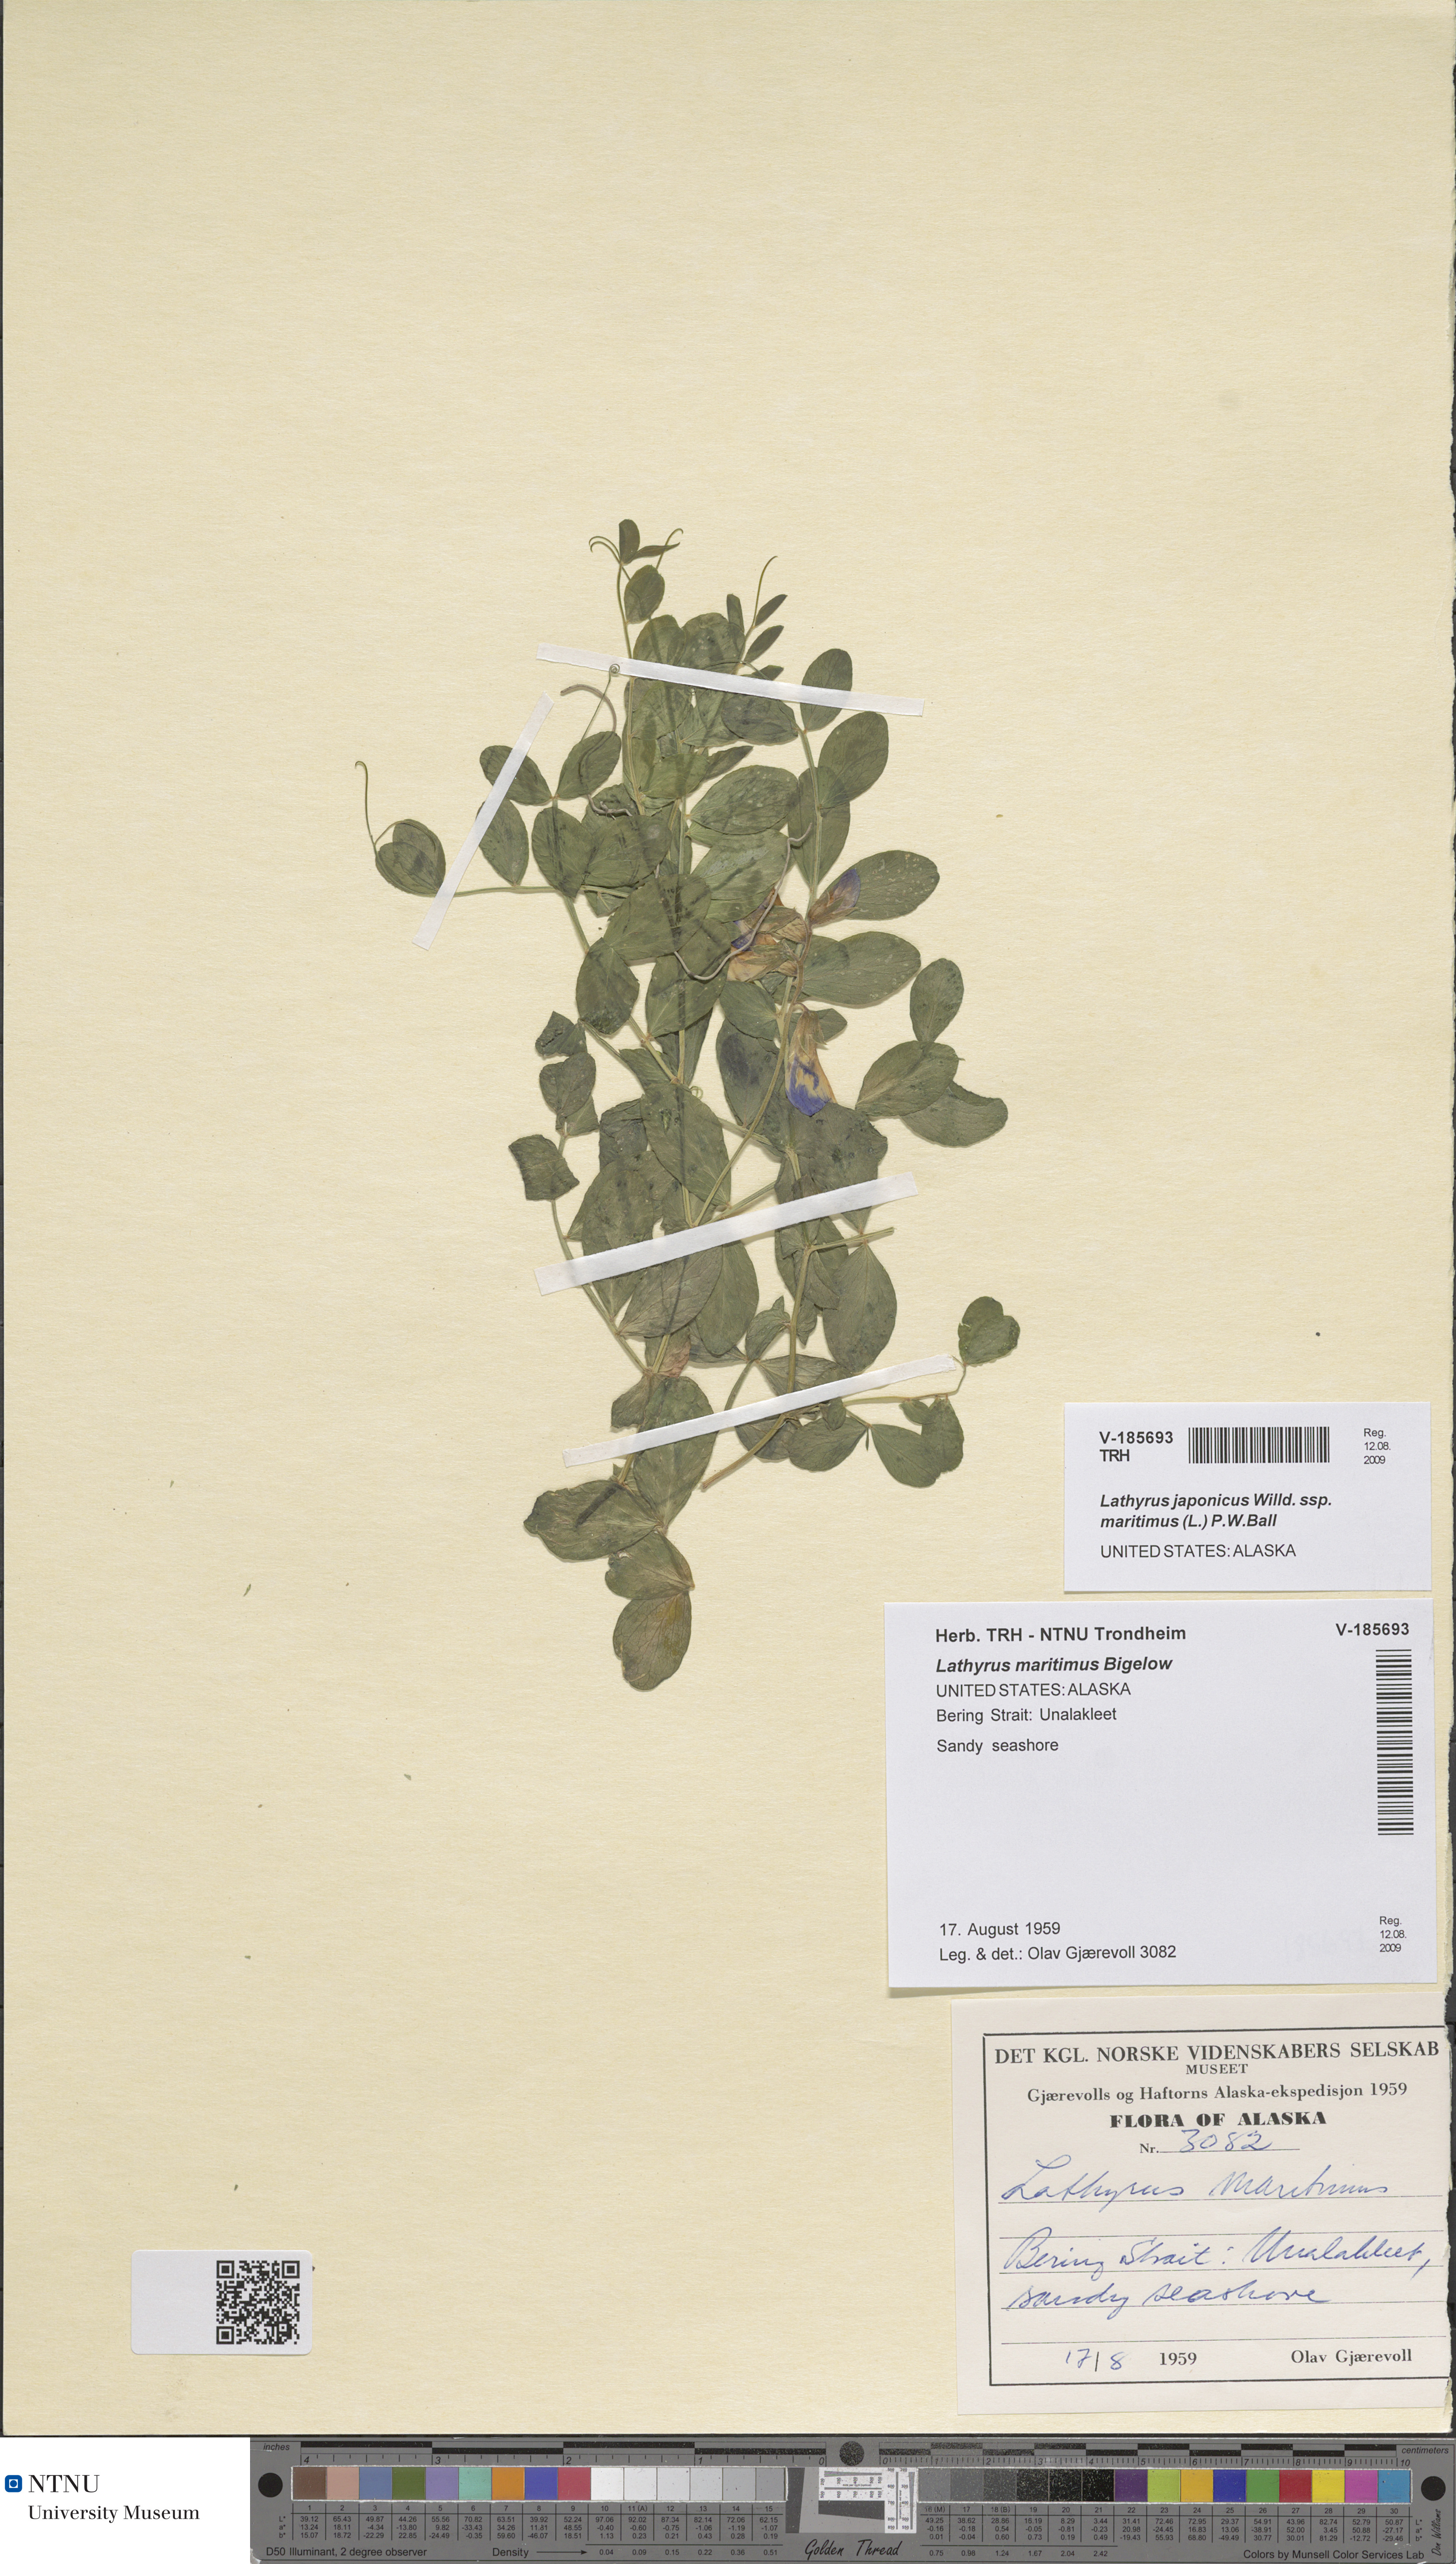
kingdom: Plantae
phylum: Tracheophyta
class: Magnoliopsida
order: Fabales
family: Fabaceae
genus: Lathyrus
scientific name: Lathyrus japonicus
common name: Sea pea
